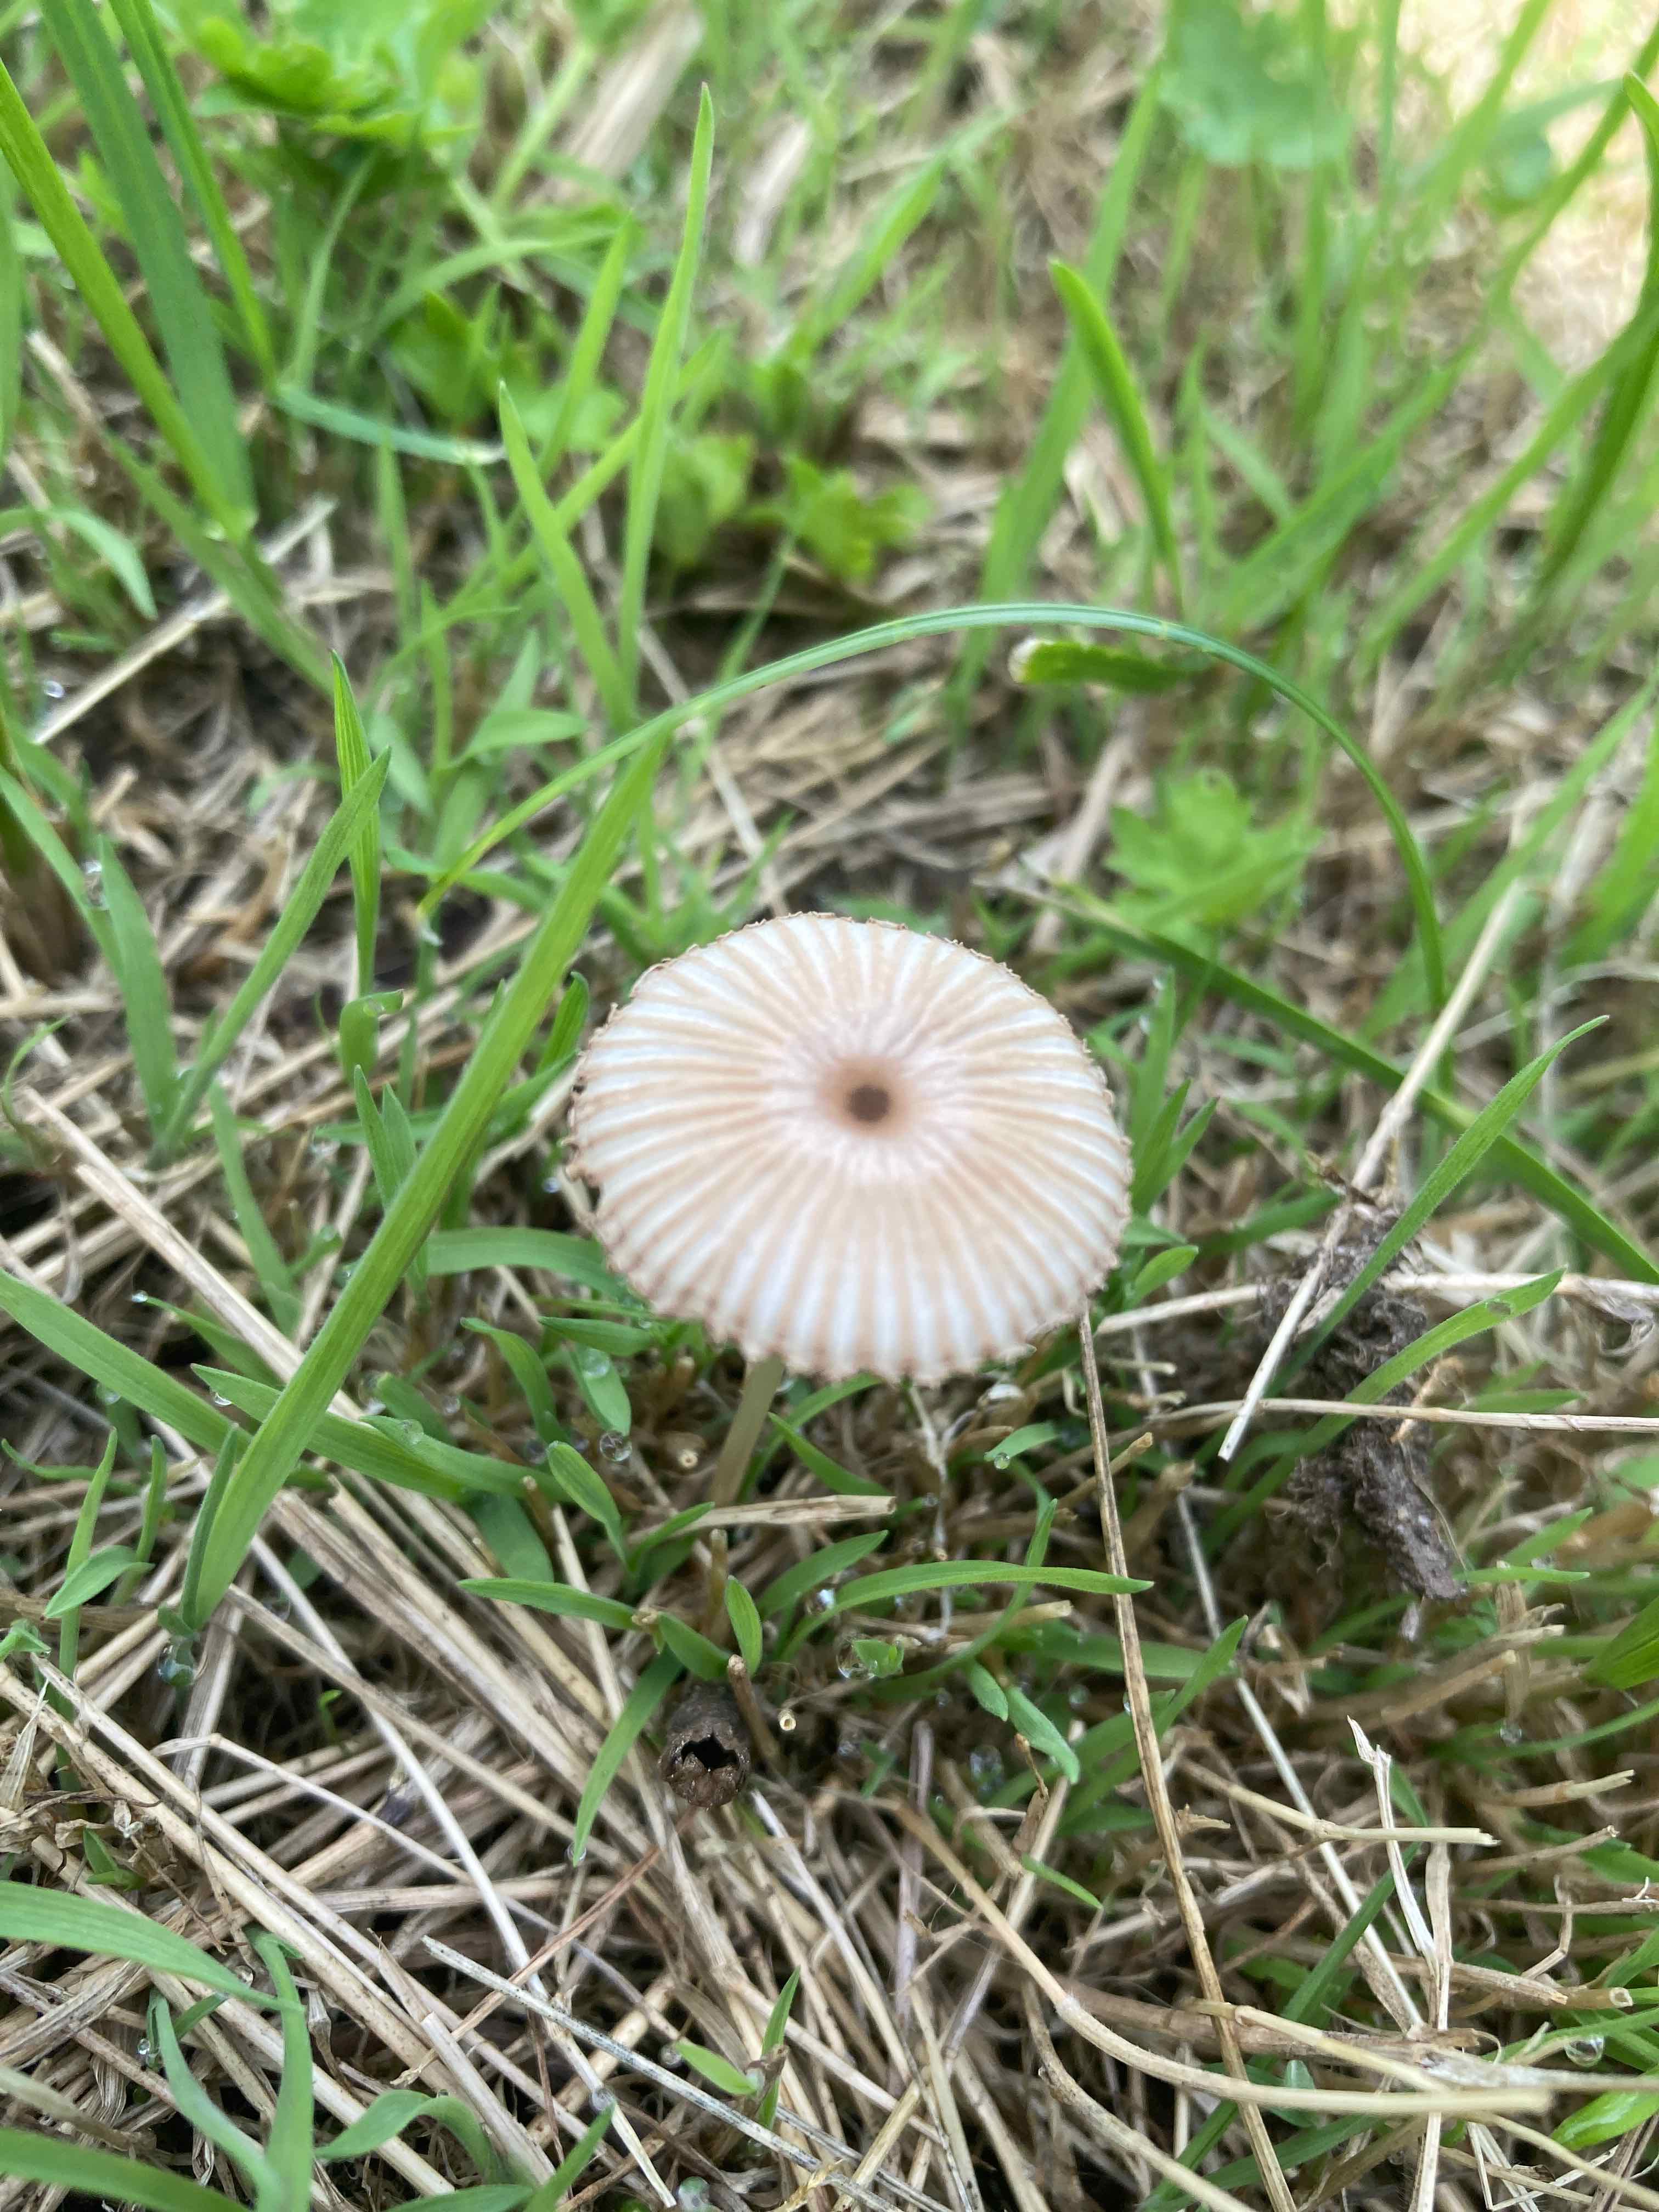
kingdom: Fungi
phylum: Basidiomycota
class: Agaricomycetes
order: Agaricales
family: Psathyrellaceae
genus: Parasola
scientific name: Parasola
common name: hjulhat
